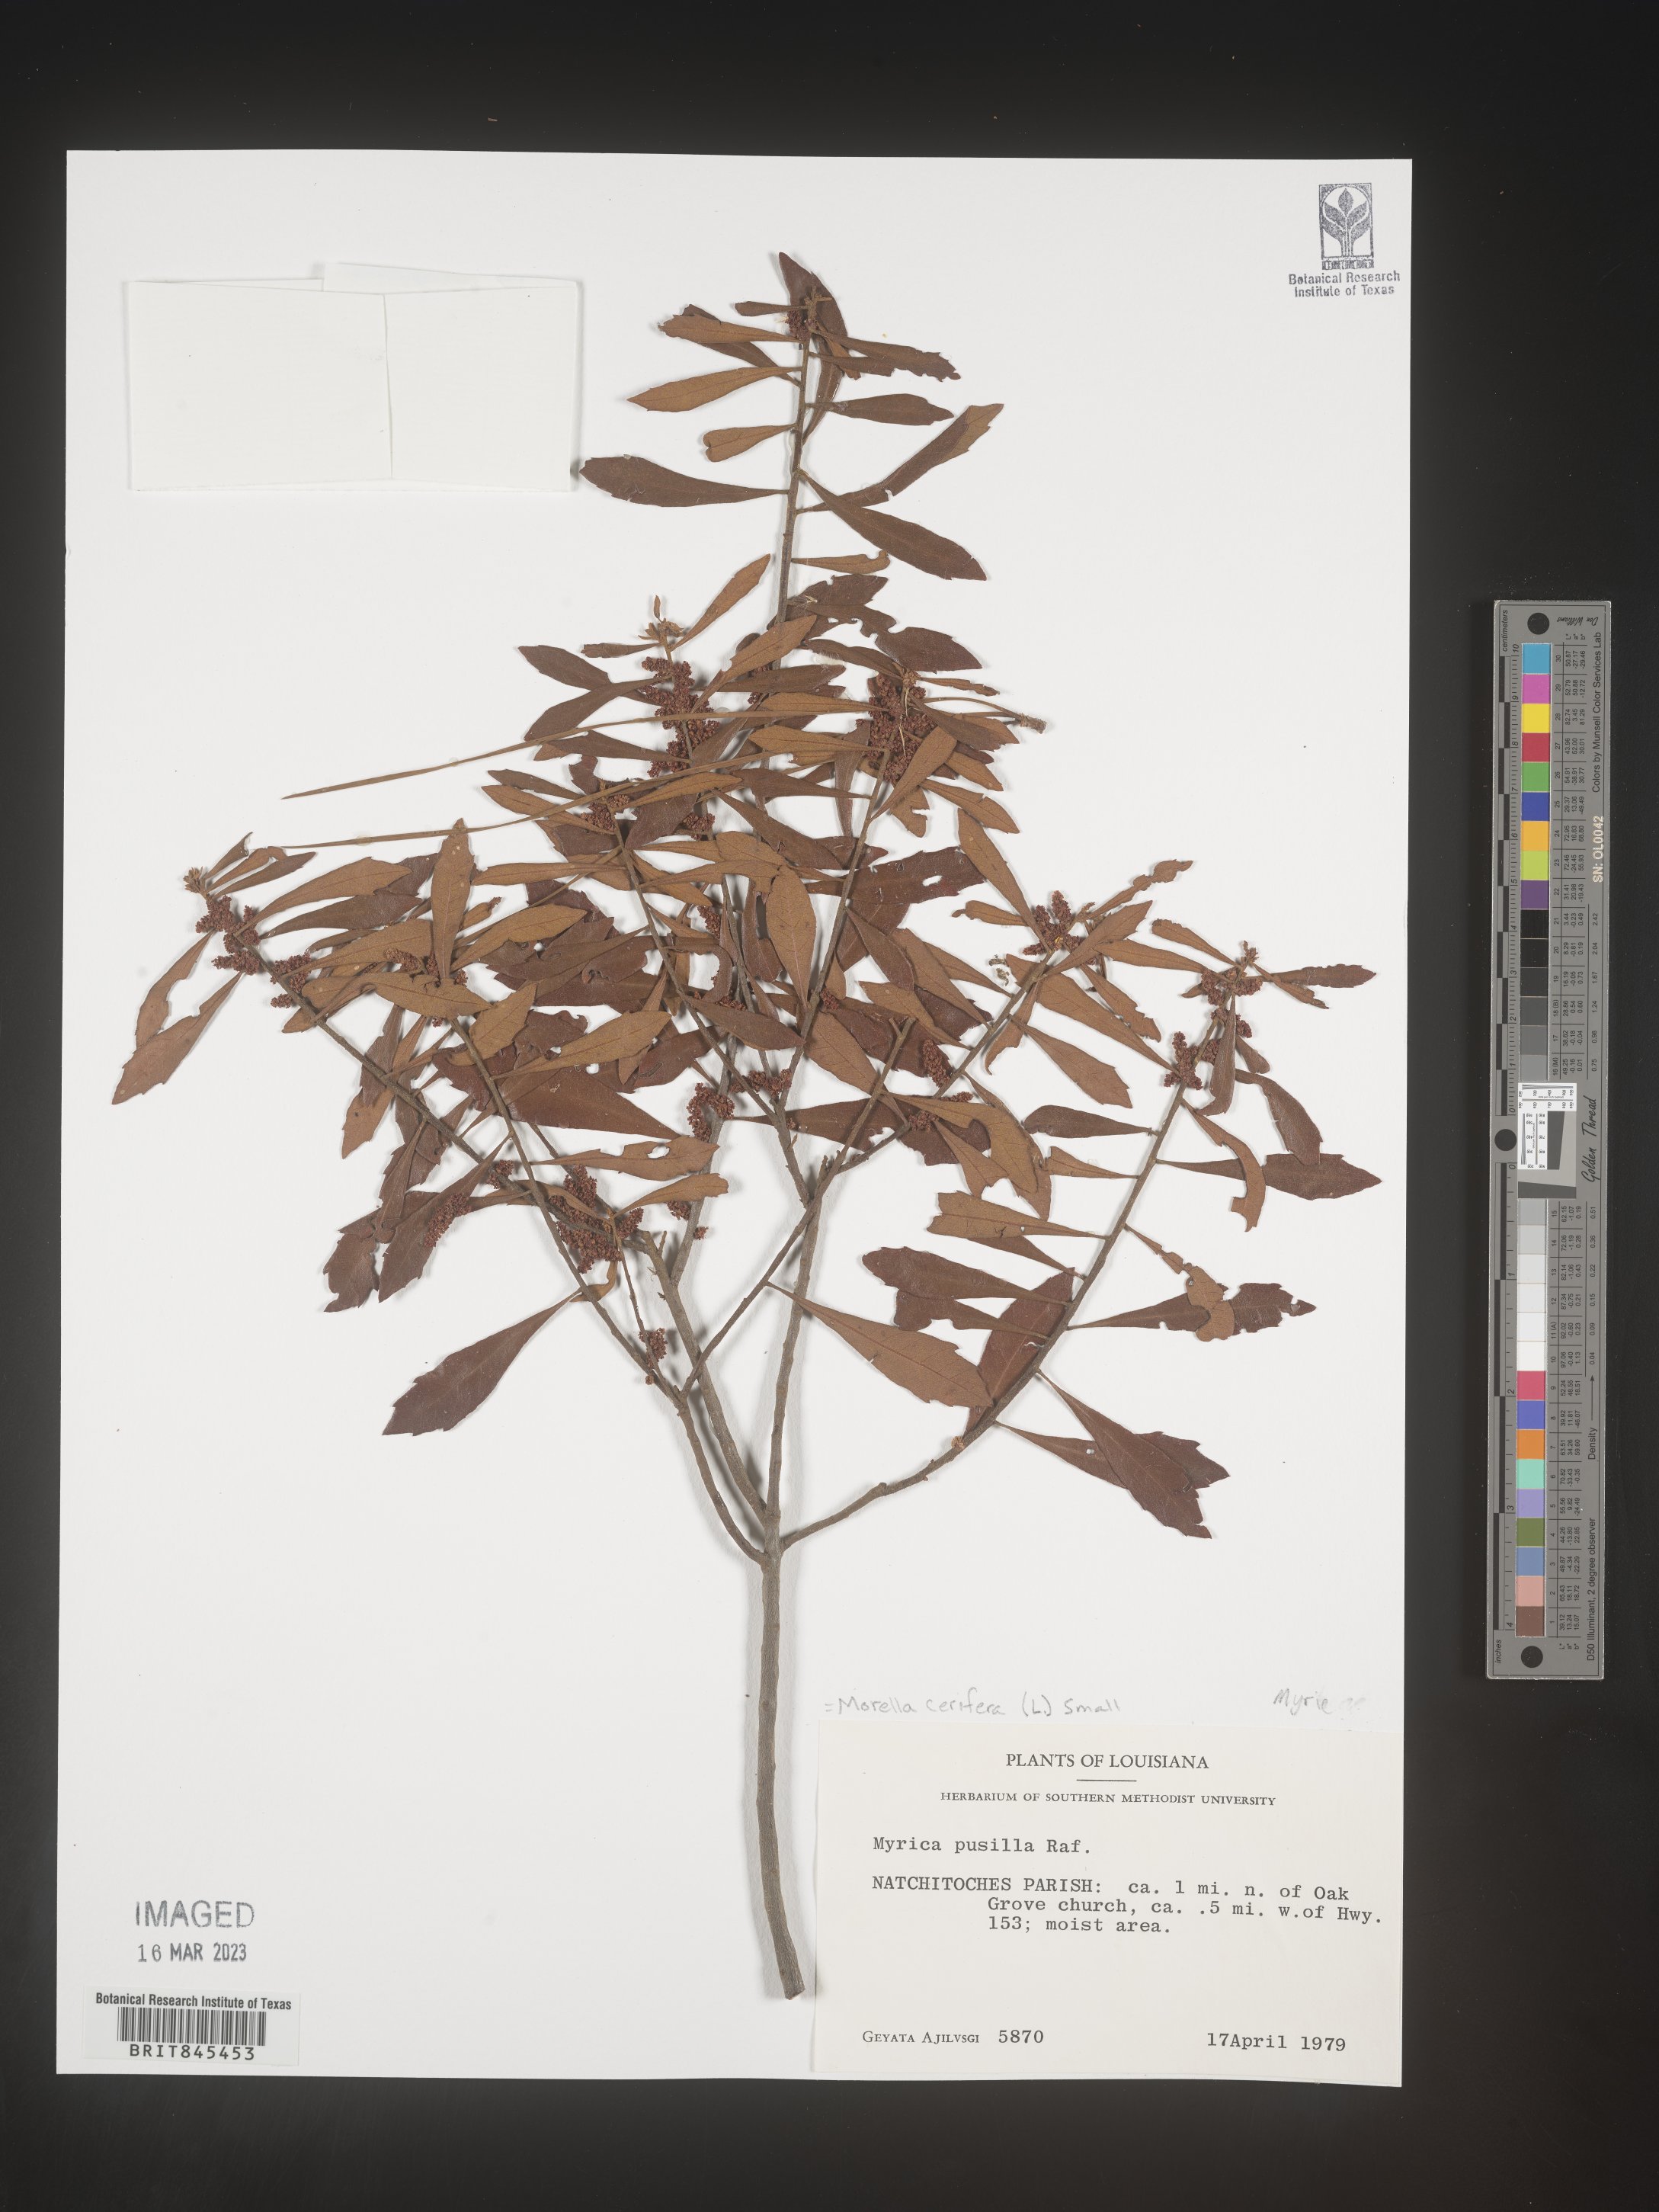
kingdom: Plantae
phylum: Tracheophyta
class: Magnoliopsida
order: Fagales
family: Myricaceae
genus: Morella
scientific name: Morella cerifera
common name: Wax myrtle
